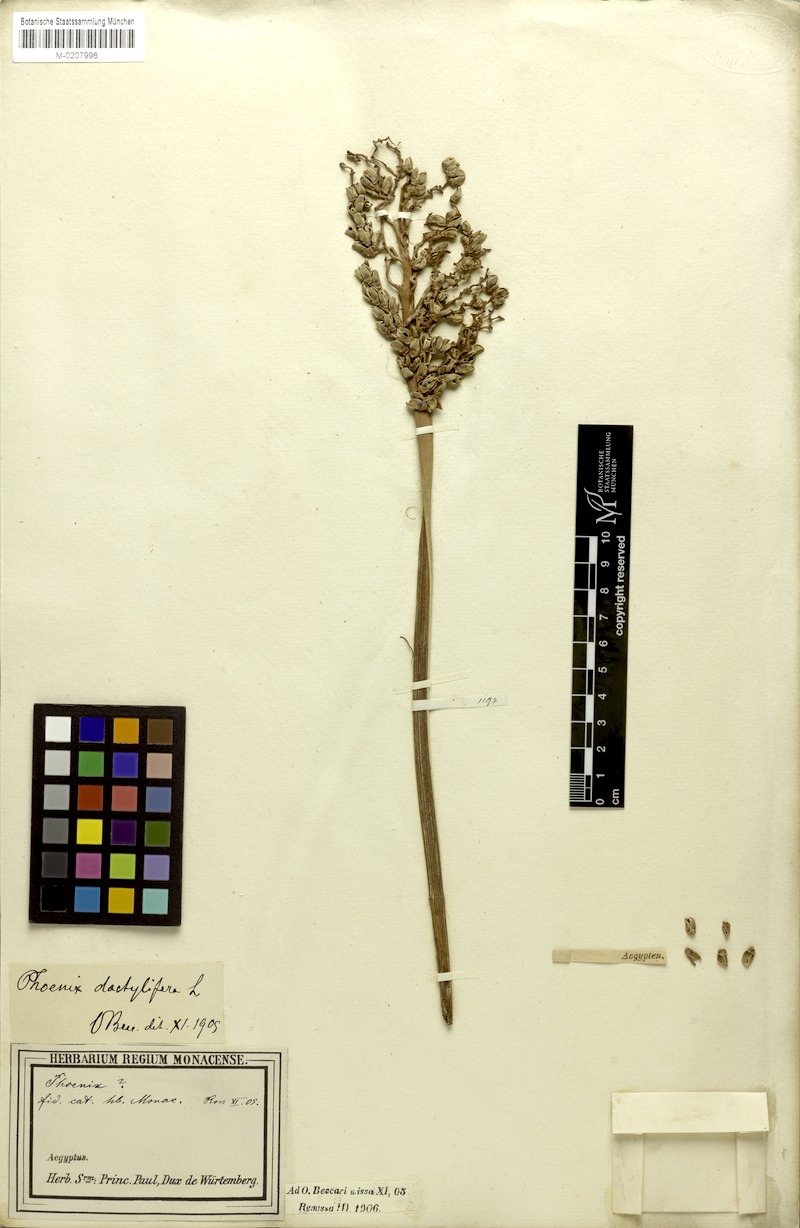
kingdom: Plantae
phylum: Tracheophyta
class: Liliopsida
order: Arecales
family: Arecaceae
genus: Phoenix
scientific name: Phoenix dactylifera
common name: Date palm
